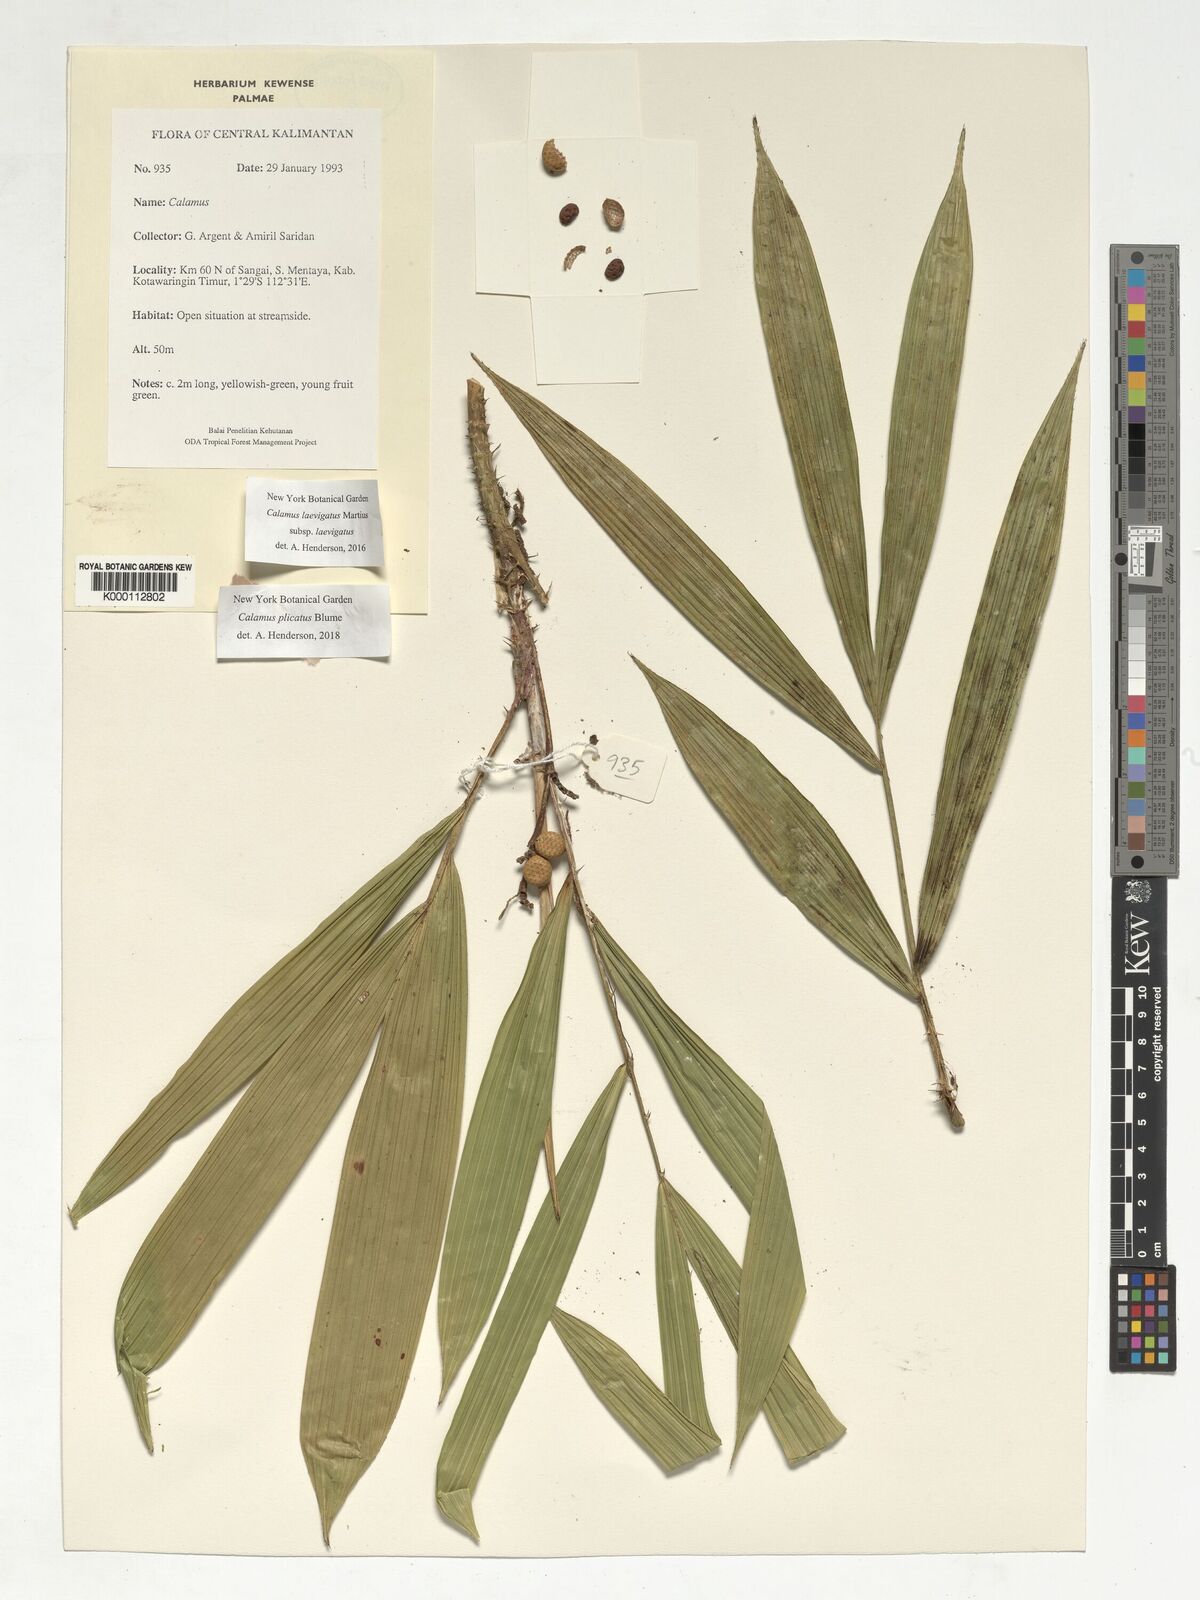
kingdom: Plantae
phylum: Tracheophyta
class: Liliopsida
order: Arecales
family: Arecaceae
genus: Calamus
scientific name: Calamus plicatus
